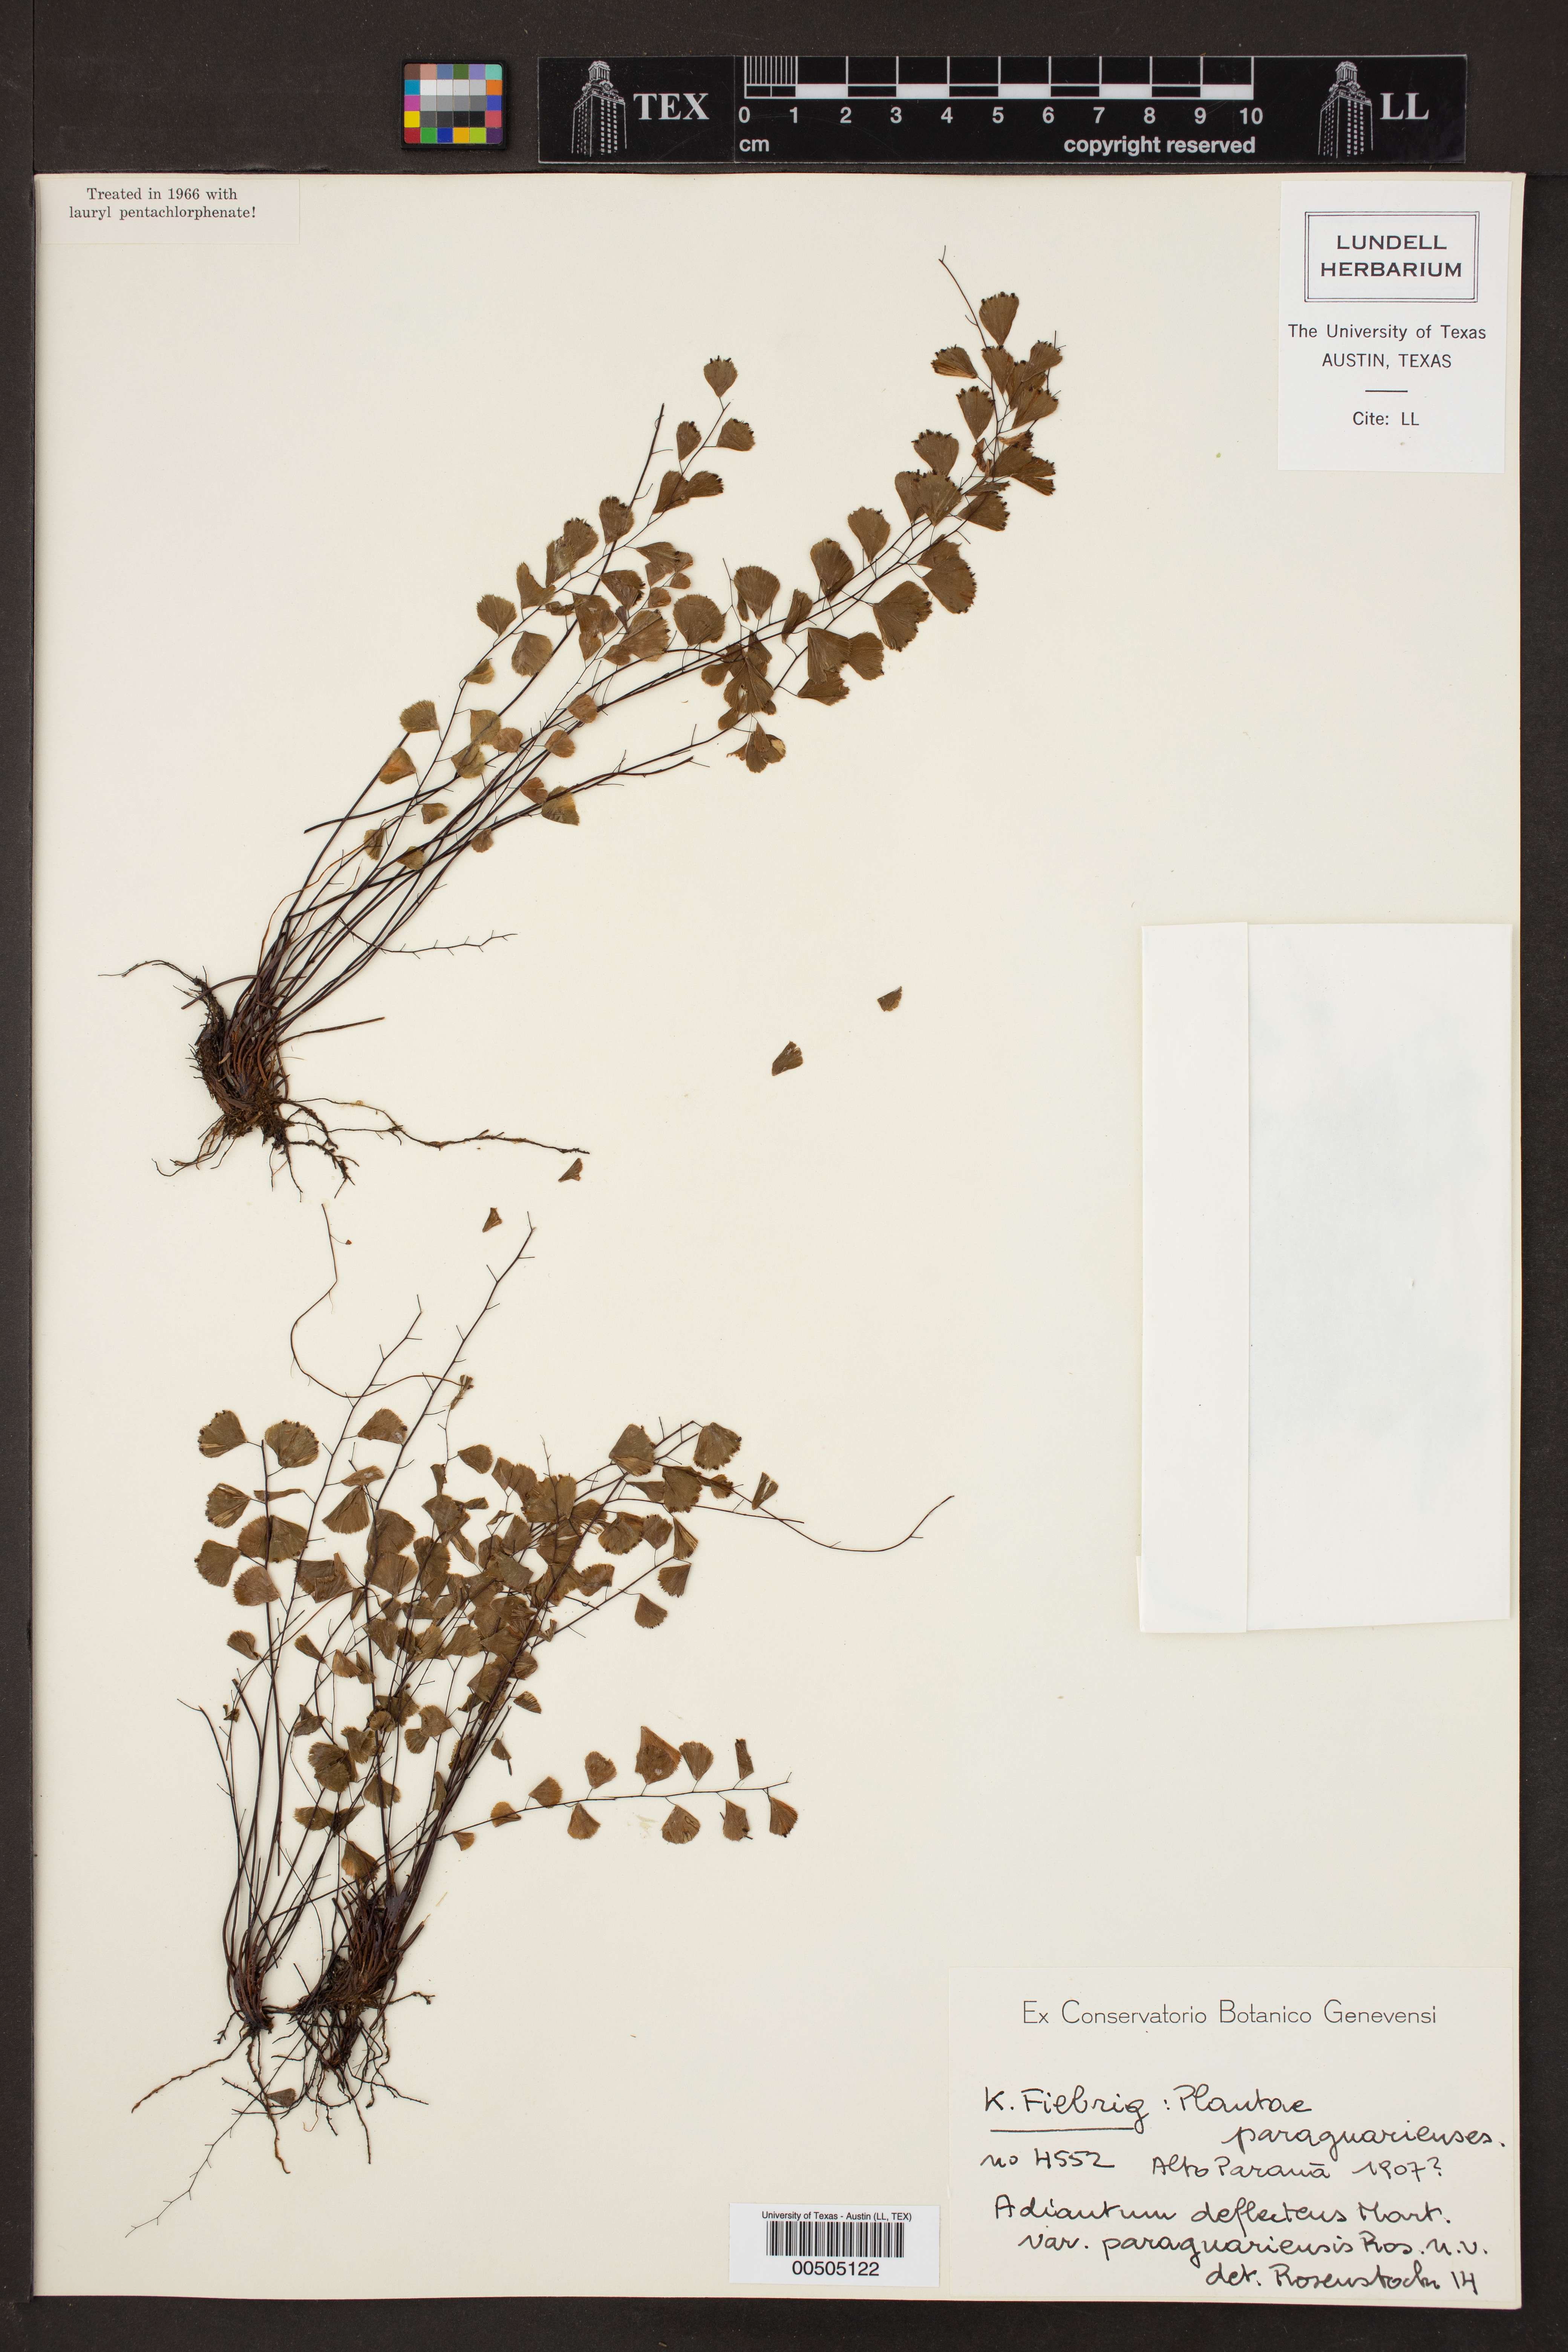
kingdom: Plantae
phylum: Tracheophyta
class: Polypodiopsida
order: Polypodiales
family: Pteridaceae
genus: Adiantum
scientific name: Adiantum deflectens
